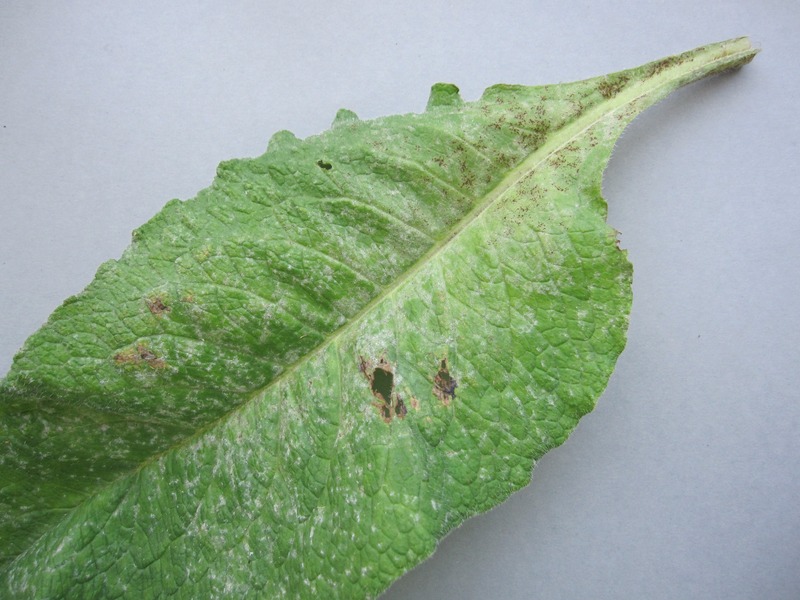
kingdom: Fungi
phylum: Ascomycota
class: Leotiomycetes
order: Helotiales
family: Erysiphaceae
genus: Golovinomyces
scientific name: Golovinomyces cynoglossi
